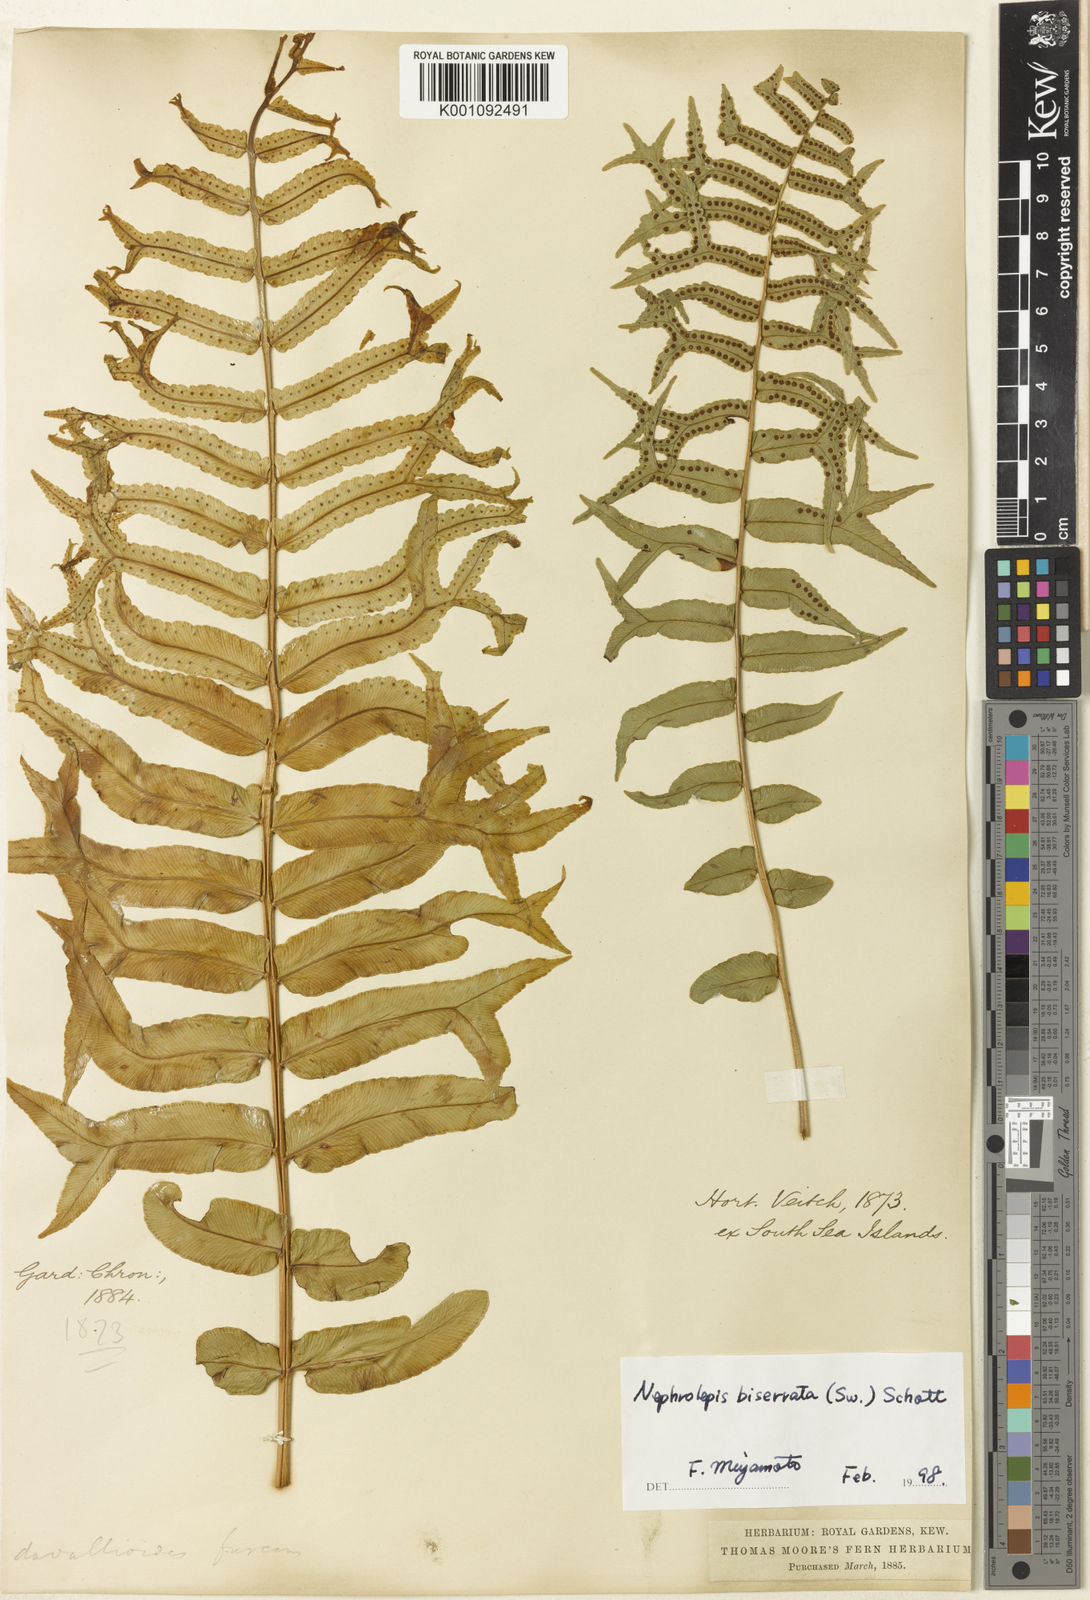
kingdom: Plantae
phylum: Tracheophyta
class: Polypodiopsida
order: Polypodiales
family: Nephrolepidaceae
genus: Nephrolepis
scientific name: Nephrolepis falcata
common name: Fishtail swordfern
